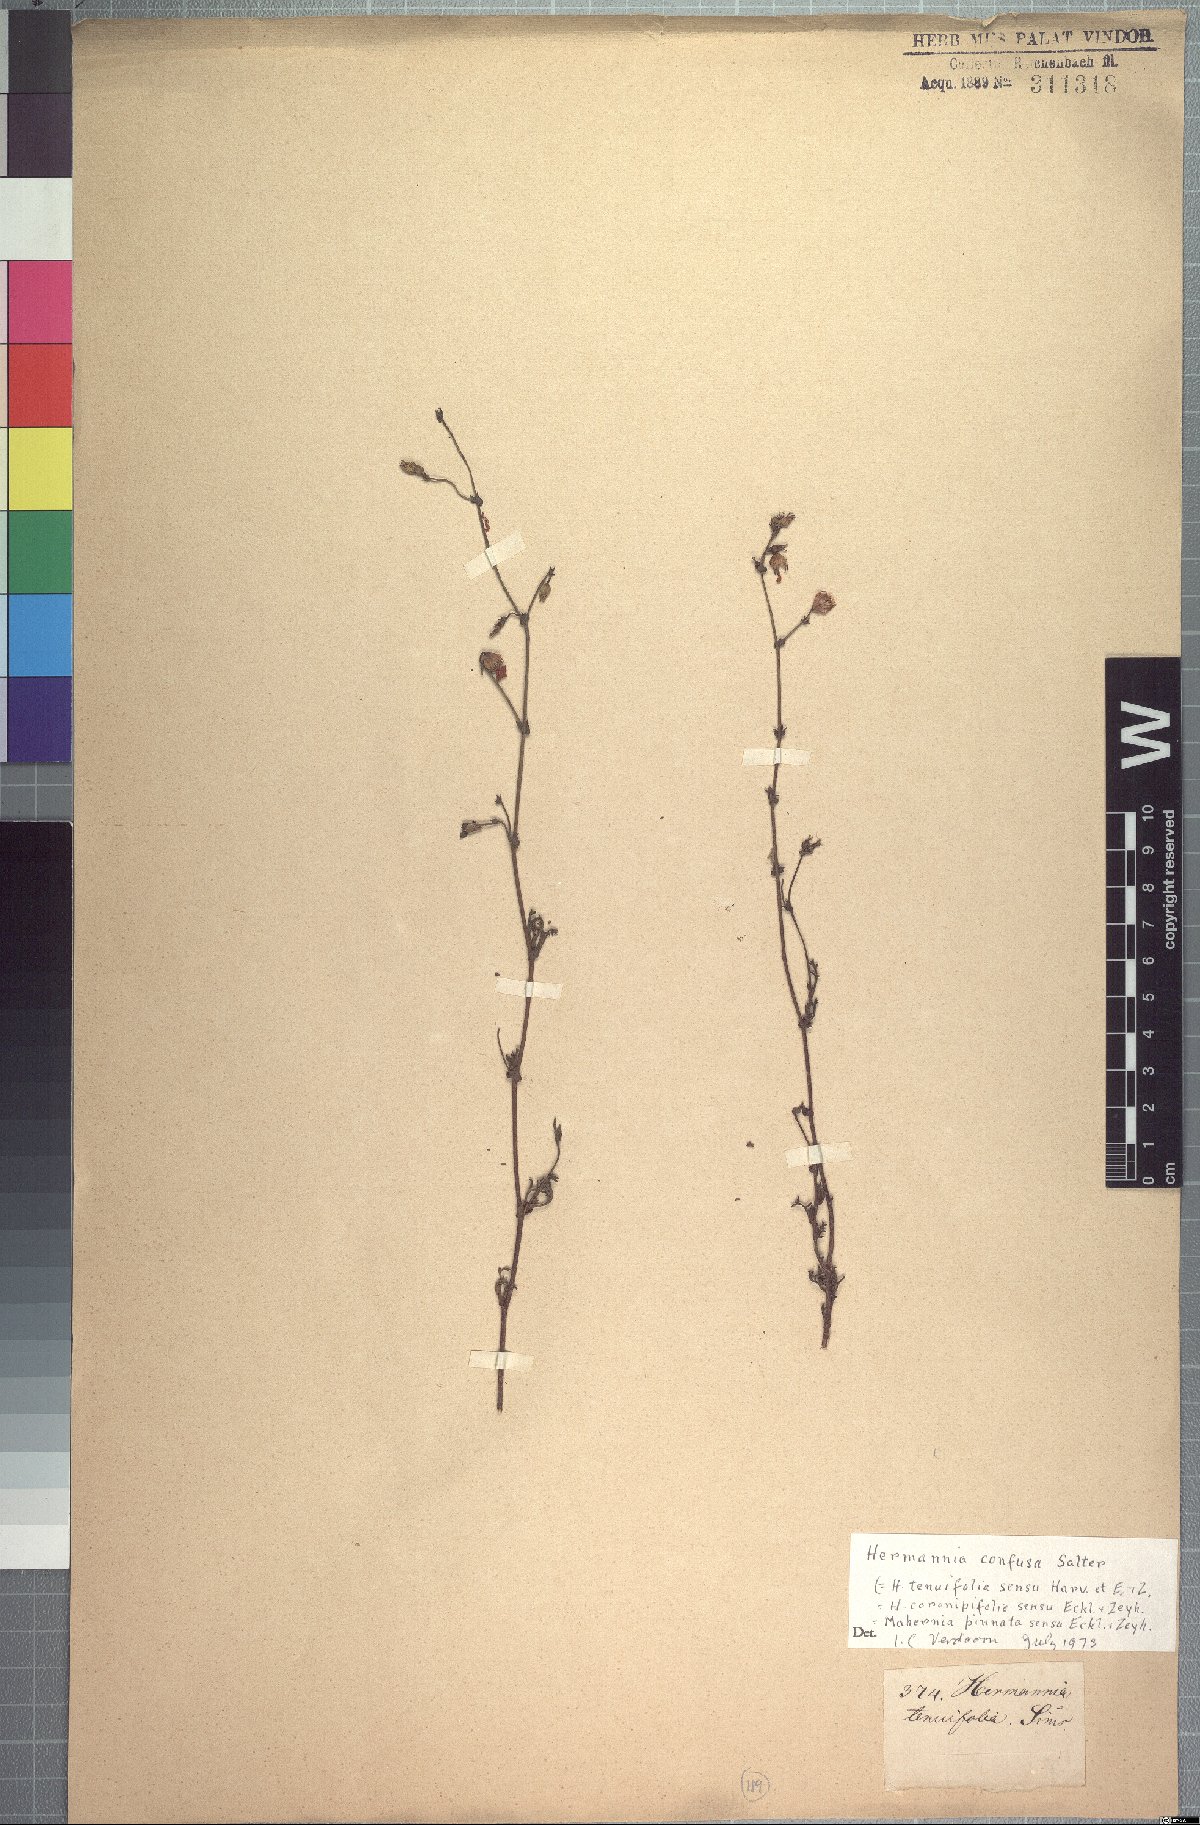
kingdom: Plantae
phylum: Tracheophyta
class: Magnoliopsida
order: Malvales
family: Malvaceae
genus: Hermannia
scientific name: Hermannia confusa
